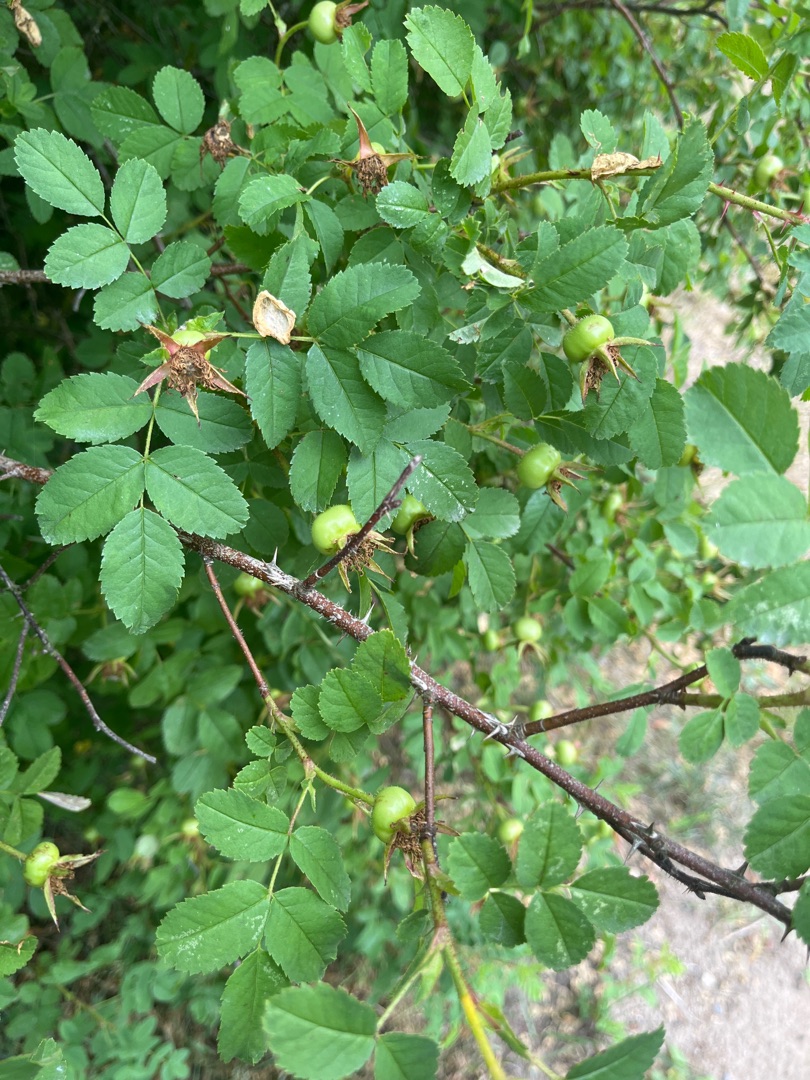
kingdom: Plantae
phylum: Tracheophyta
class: Magnoliopsida
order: Rosales
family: Rosaceae
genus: Rosa
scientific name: Rosa spinosissima
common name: Klit-rose
